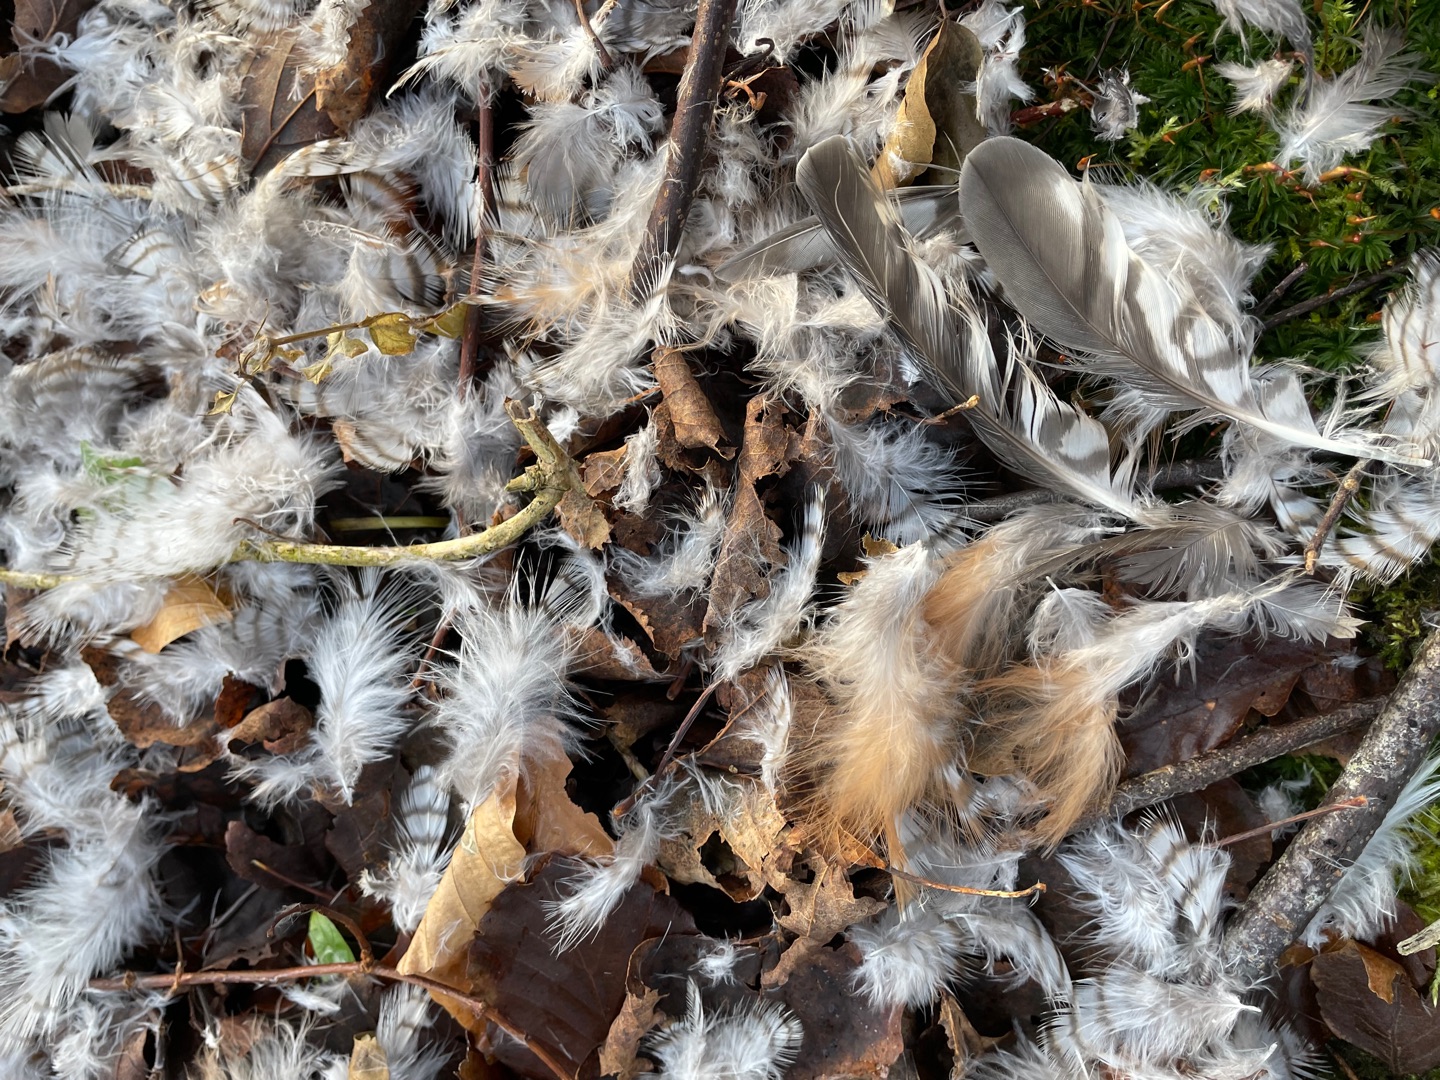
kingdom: Animalia
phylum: Chordata
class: Aves
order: Accipitriformes
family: Accipitridae
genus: Accipiter
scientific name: Accipiter nisus
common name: Spurvehøg
